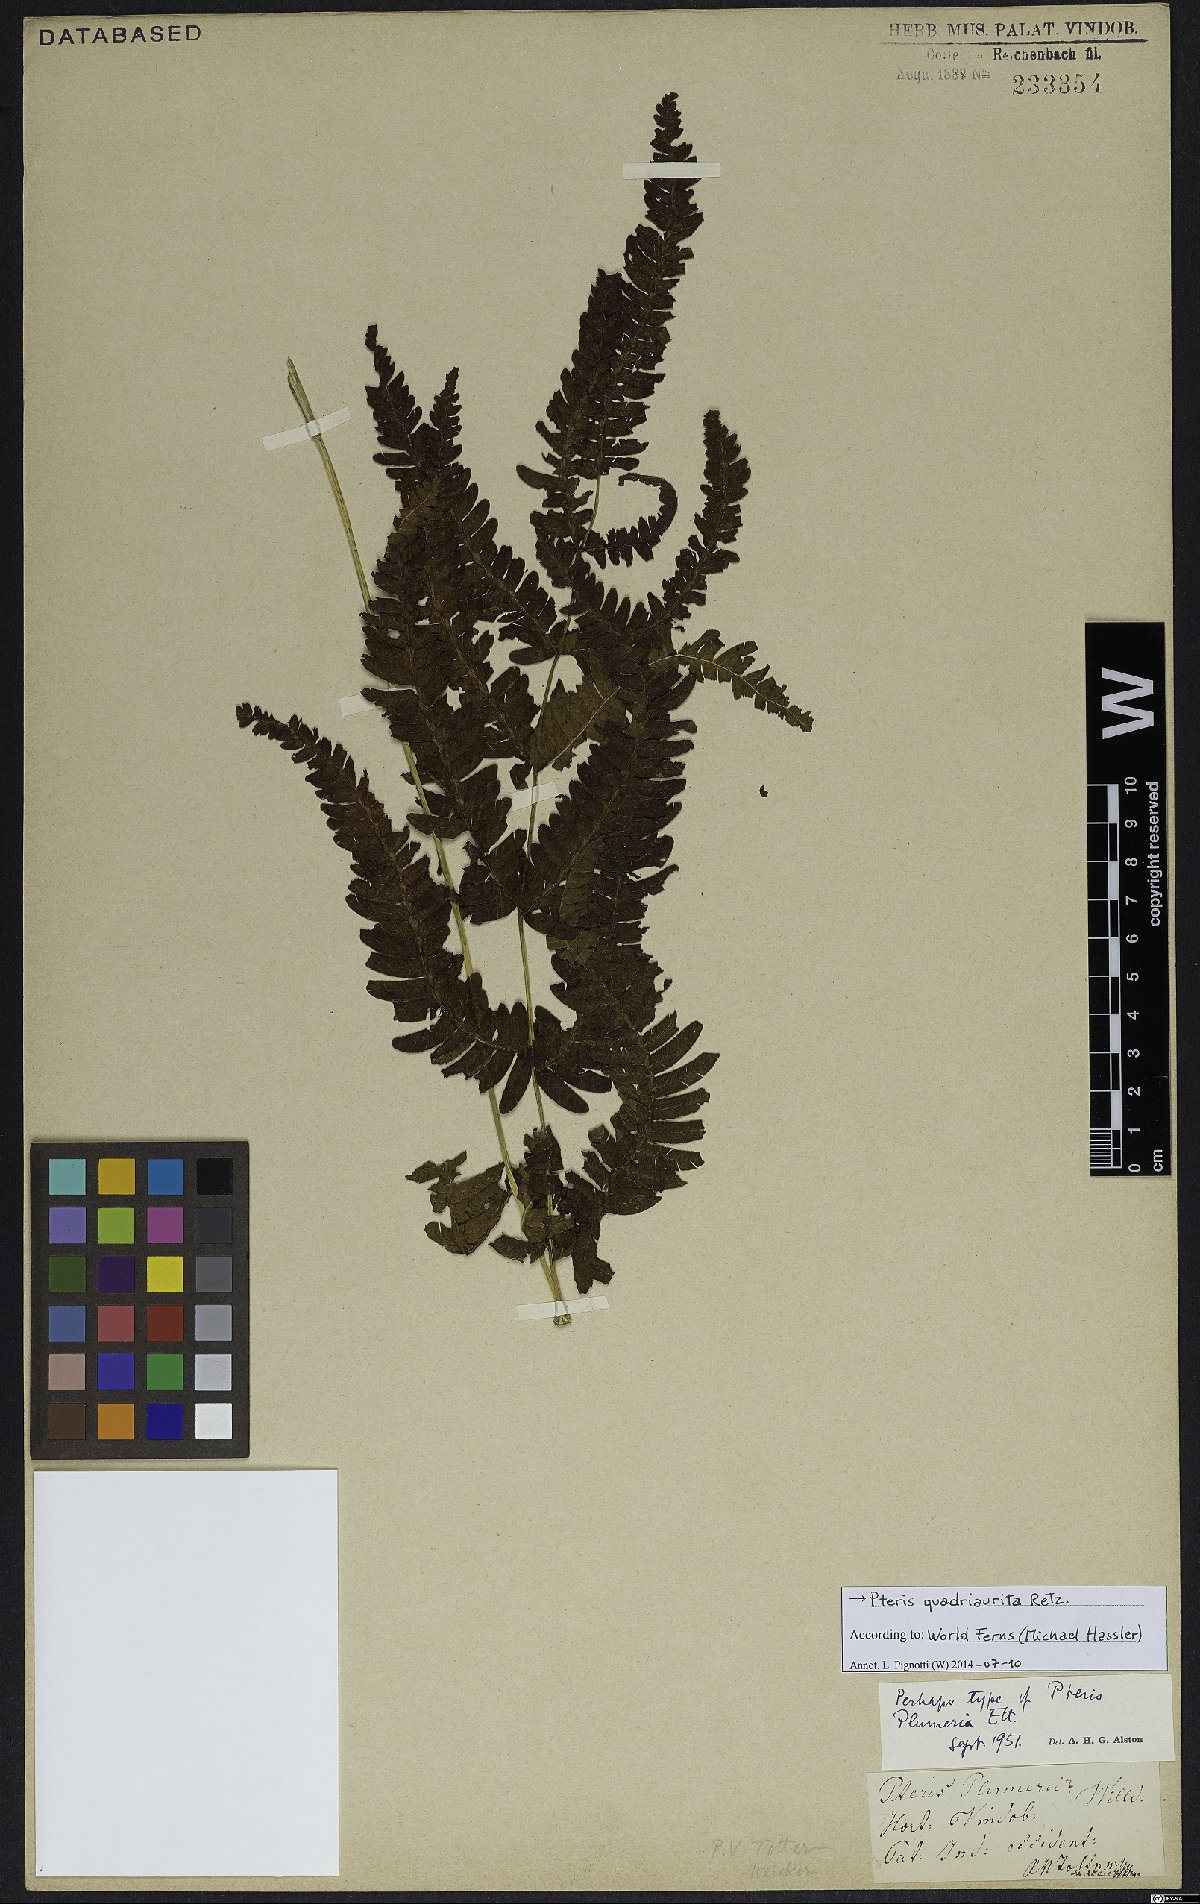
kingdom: Plantae
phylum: Tracheophyta
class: Polypodiopsida
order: Polypodiales
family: Pteridaceae
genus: Pteris
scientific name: Pteris quadriaurita
